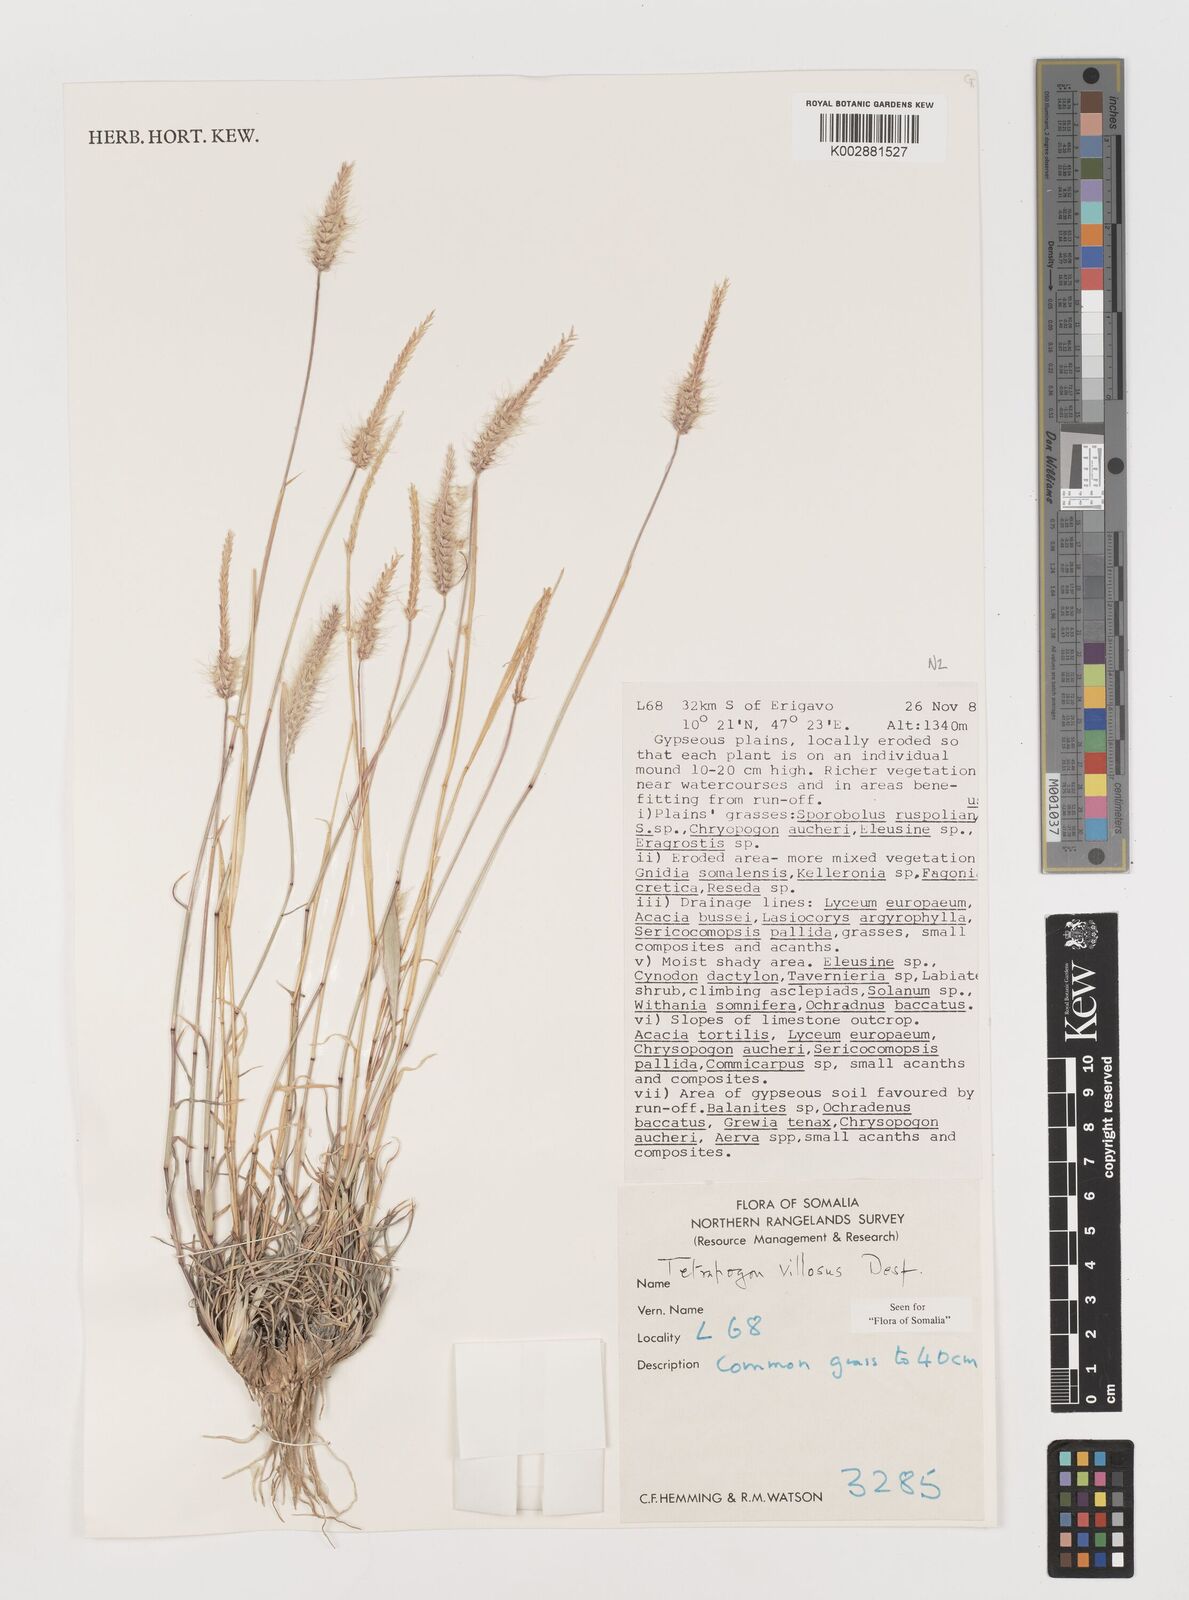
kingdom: Plantae
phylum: Tracheophyta
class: Liliopsida
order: Poales
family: Poaceae
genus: Tetrapogon
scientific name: Tetrapogon villosus
